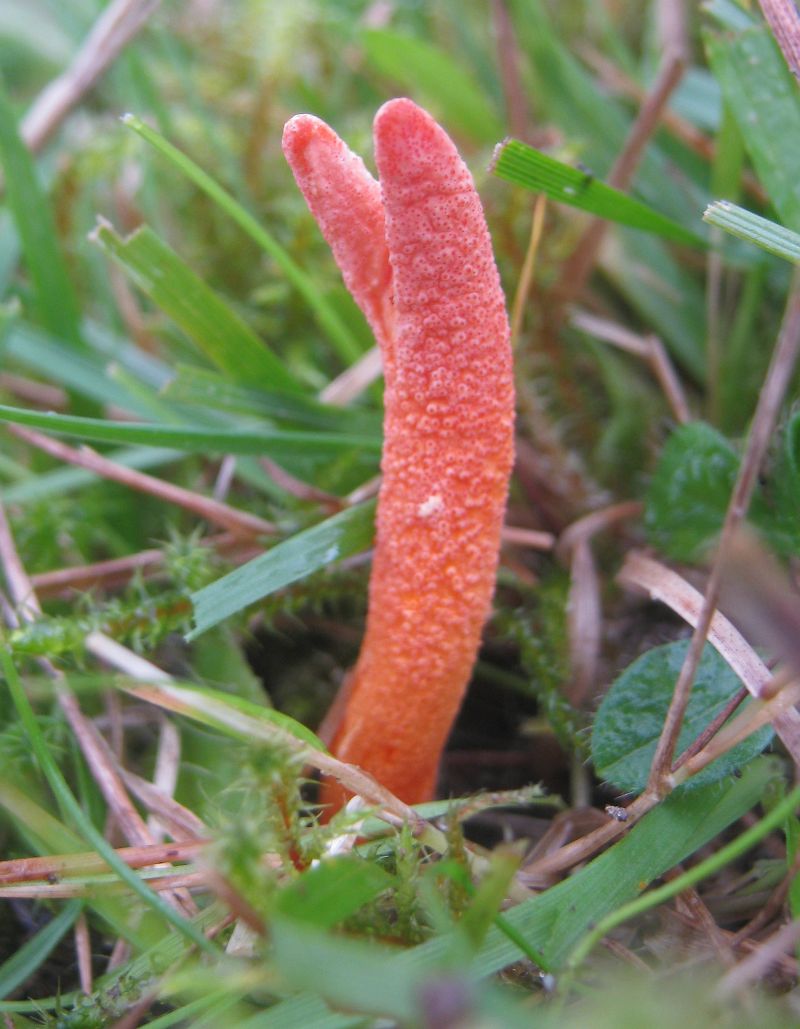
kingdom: Fungi
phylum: Ascomycota
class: Sordariomycetes
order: Hypocreales
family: Cordycipitaceae
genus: Cordyceps
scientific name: Cordyceps militaris
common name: puppe-snyltekølle
